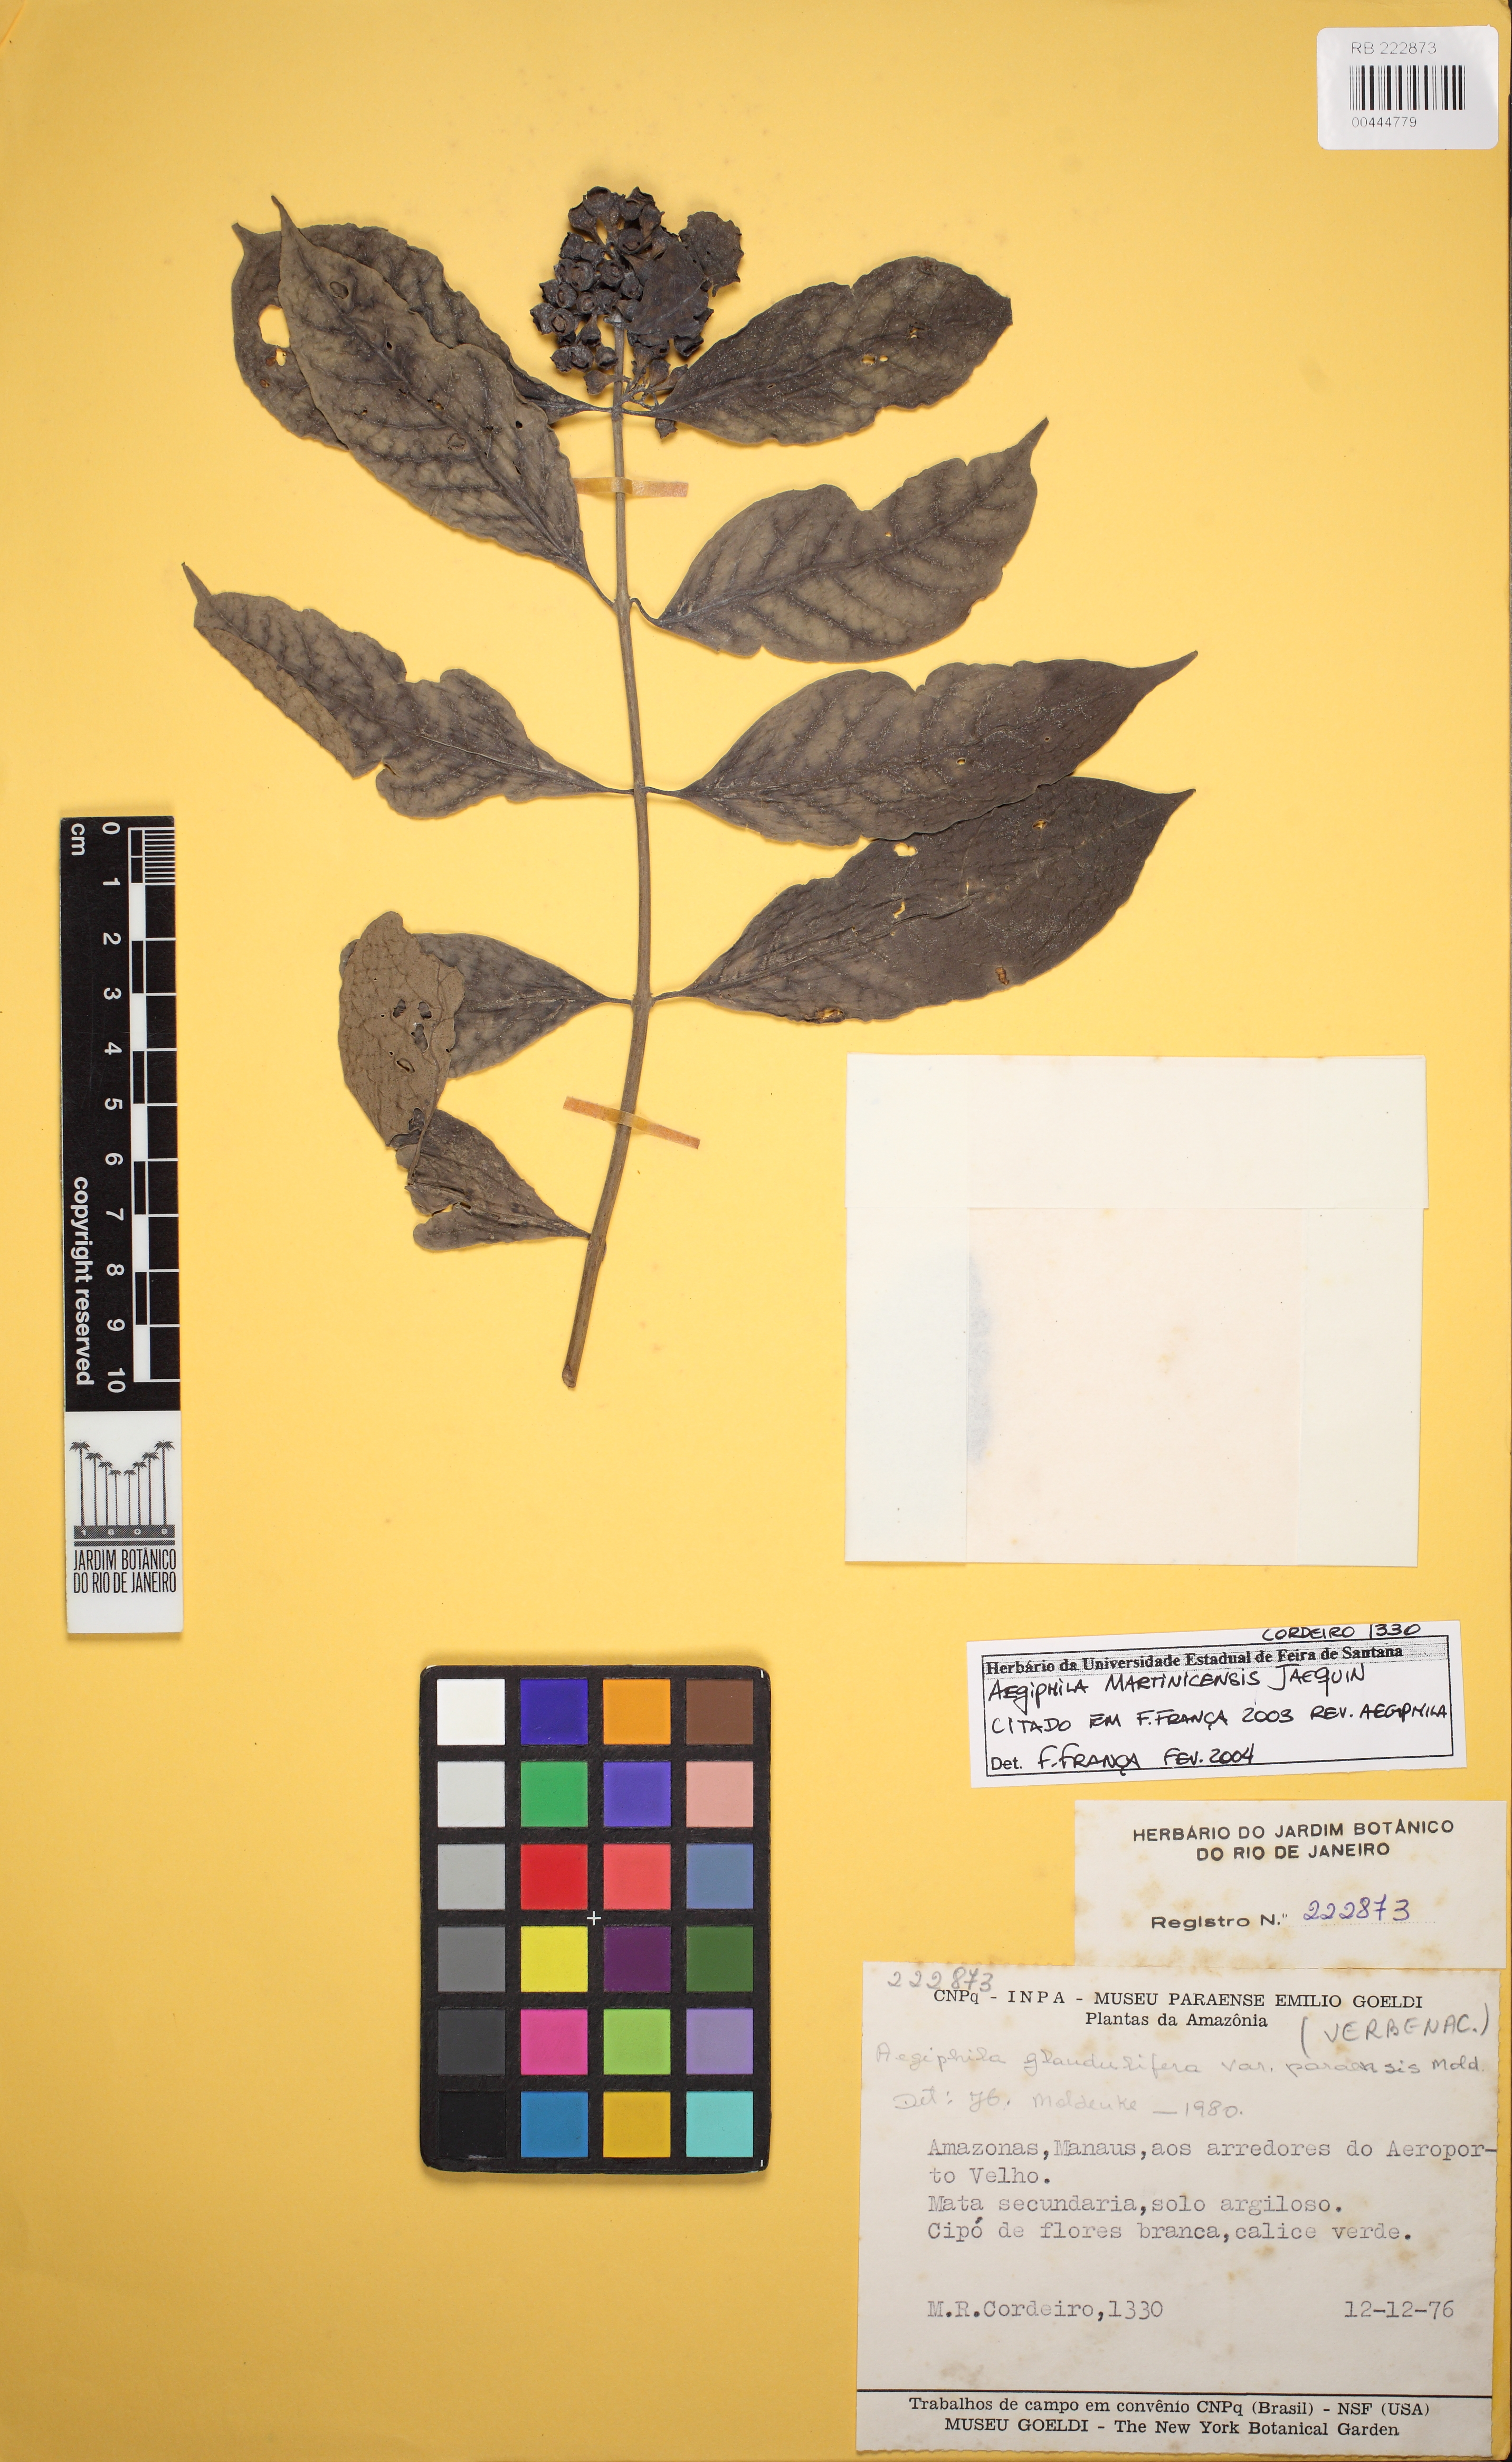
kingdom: Plantae
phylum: Tracheophyta
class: Magnoliopsida
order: Lamiales
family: Lamiaceae
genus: Aegiphila
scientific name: Aegiphila martinicensis
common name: Bastard whiteroot
